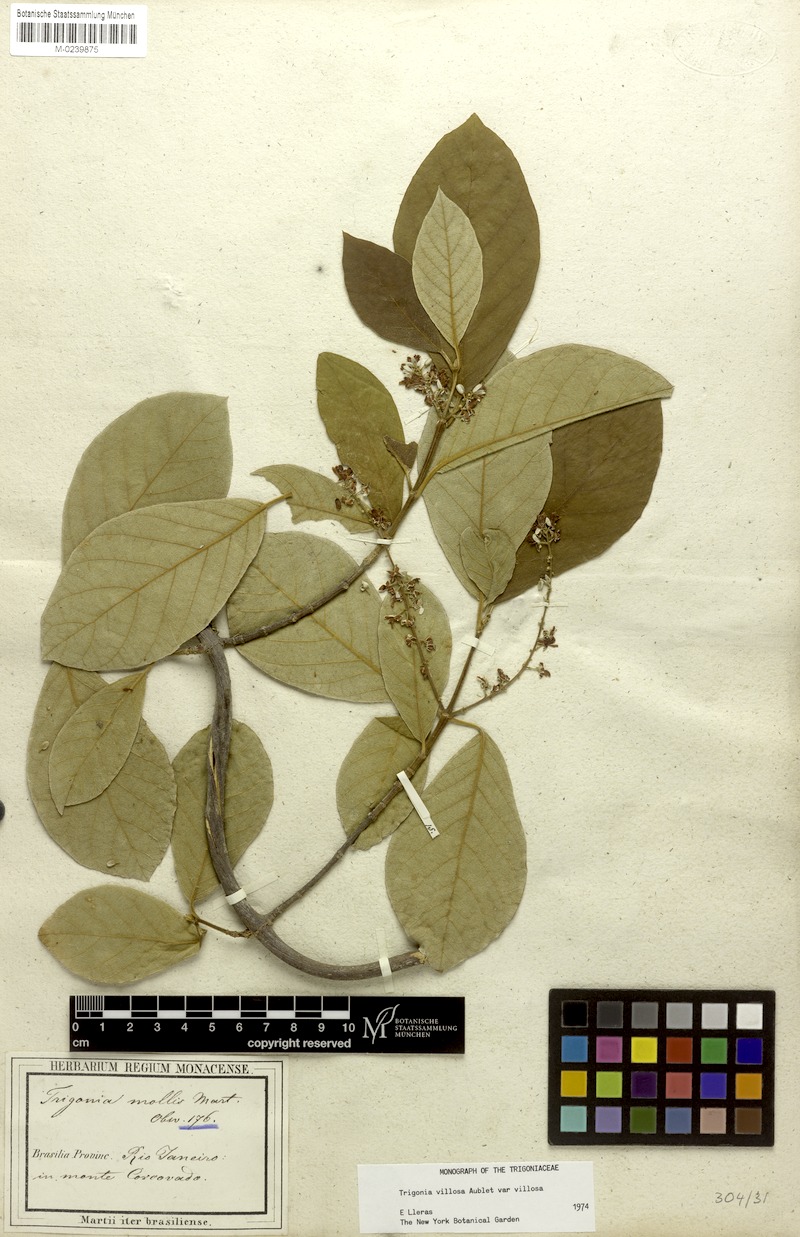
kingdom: Plantae
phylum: Tracheophyta
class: Magnoliopsida
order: Malpighiales
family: Trigoniaceae
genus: Trigonia
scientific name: Trigonia villosa
